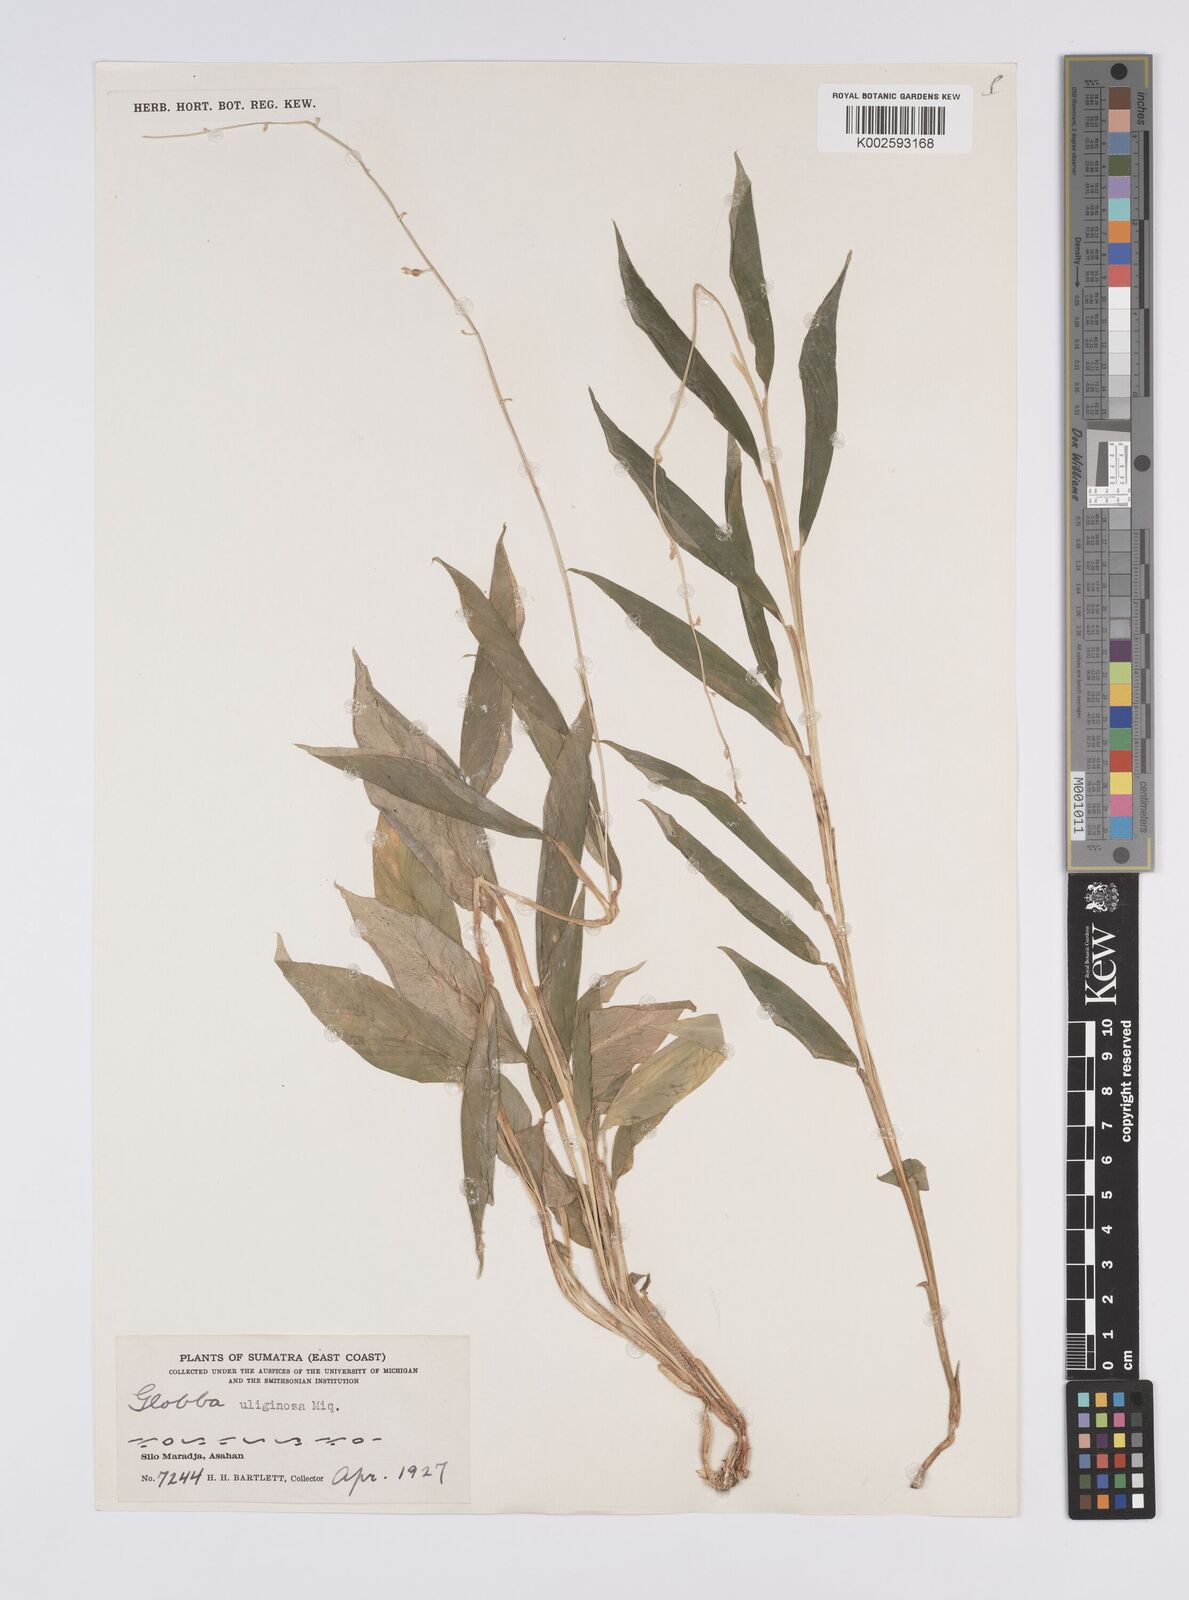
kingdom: Plantae
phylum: Tracheophyta
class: Liliopsida
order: Zingiberales
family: Zingiberaceae
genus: Globba
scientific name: Globba pendula
